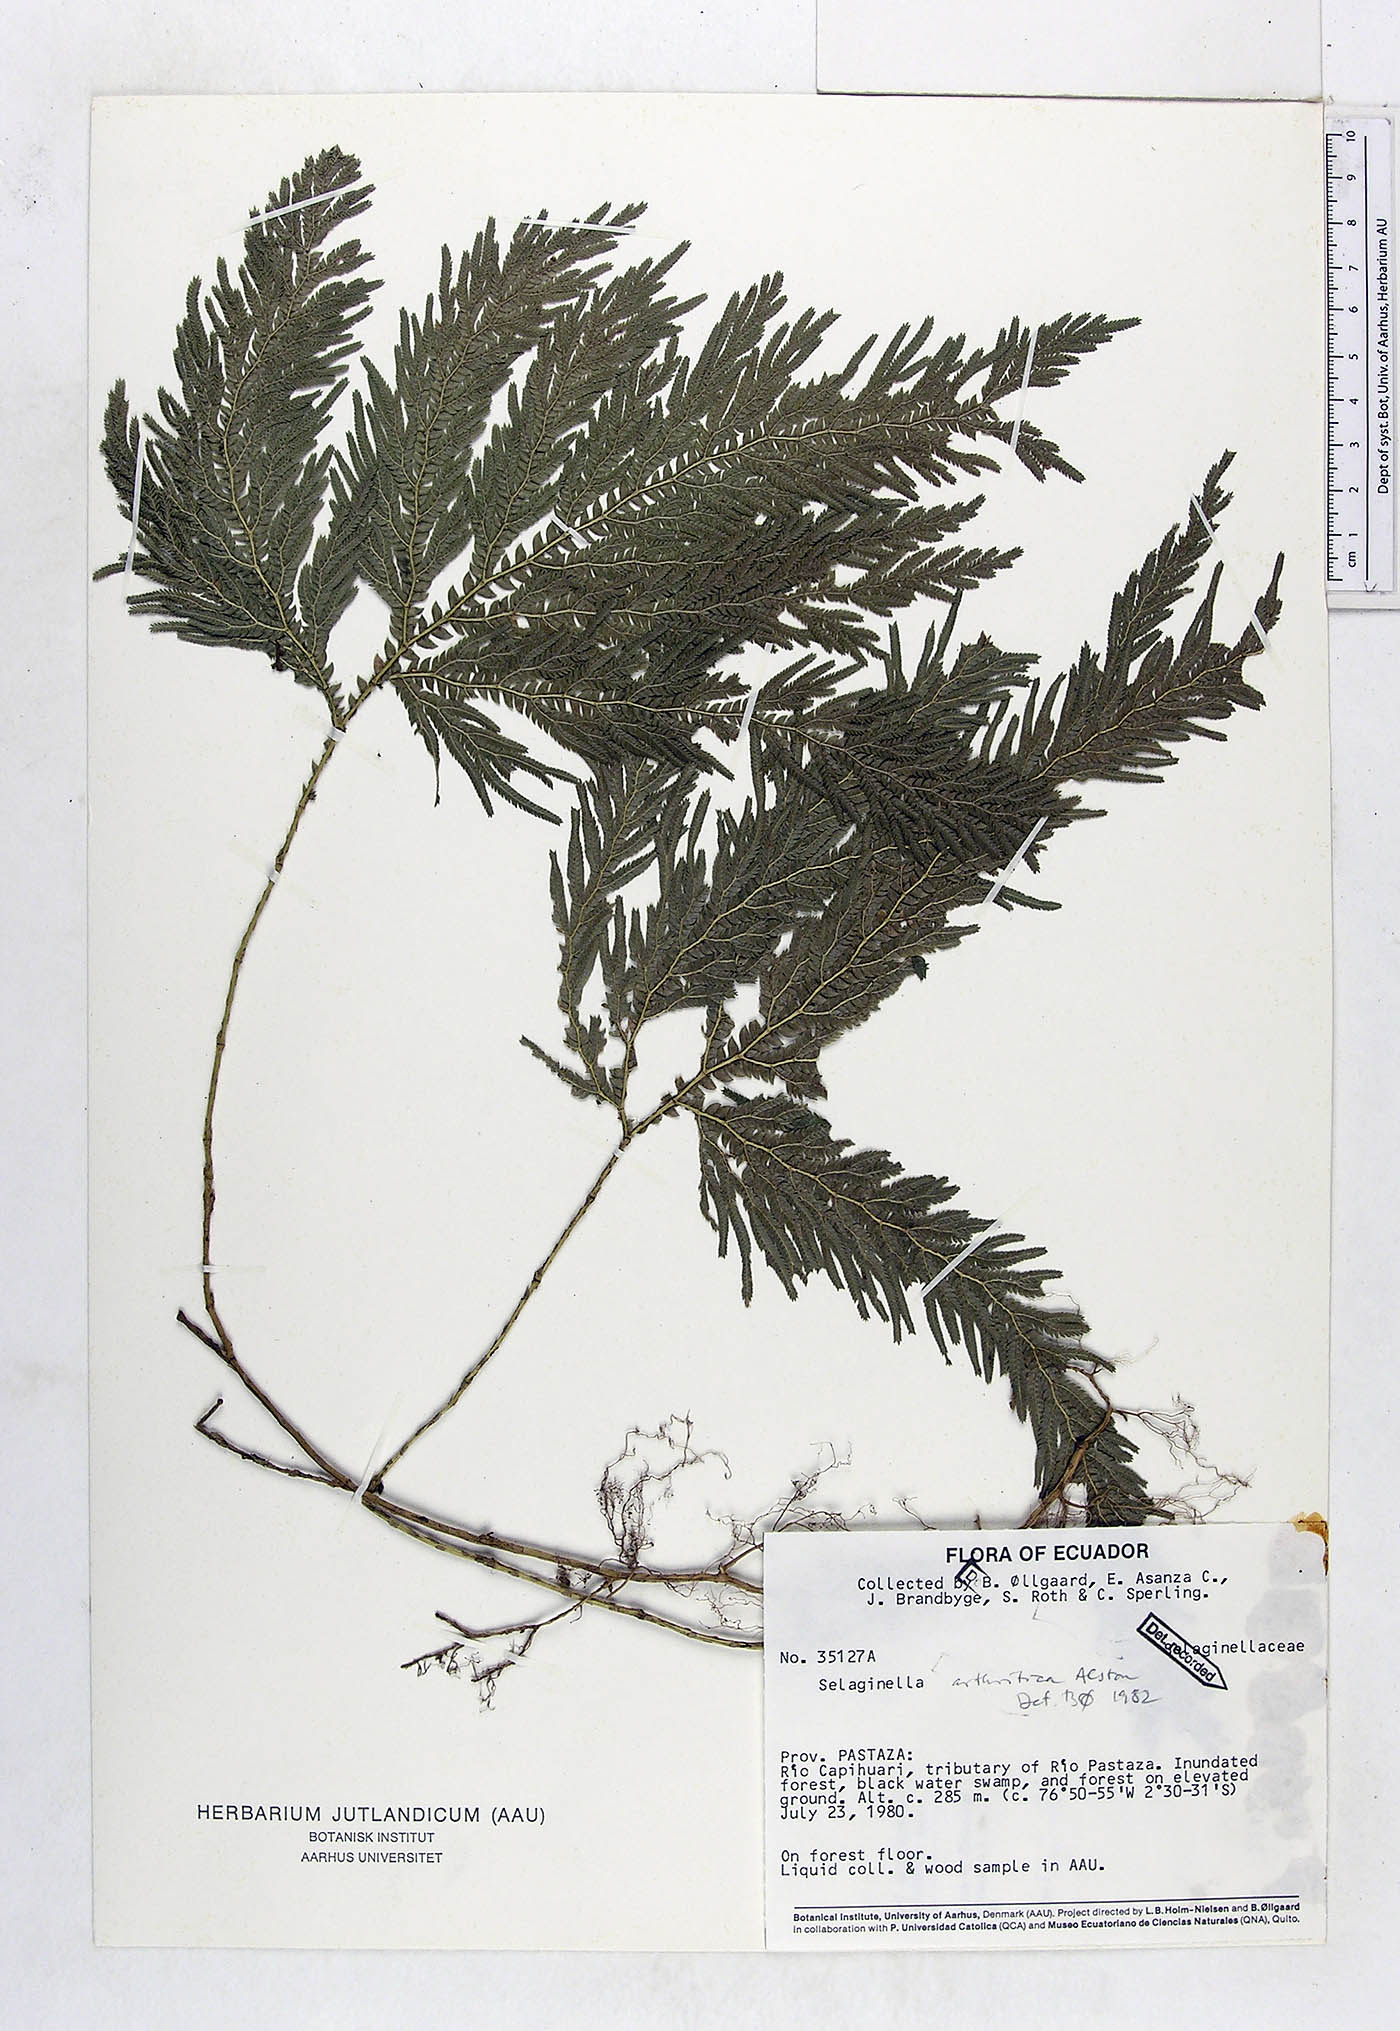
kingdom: Plantae
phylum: Tracheophyta
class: Lycopodiopsida
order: Selaginellales
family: Selaginellaceae
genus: Selaginella
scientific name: Selaginella arthritica
